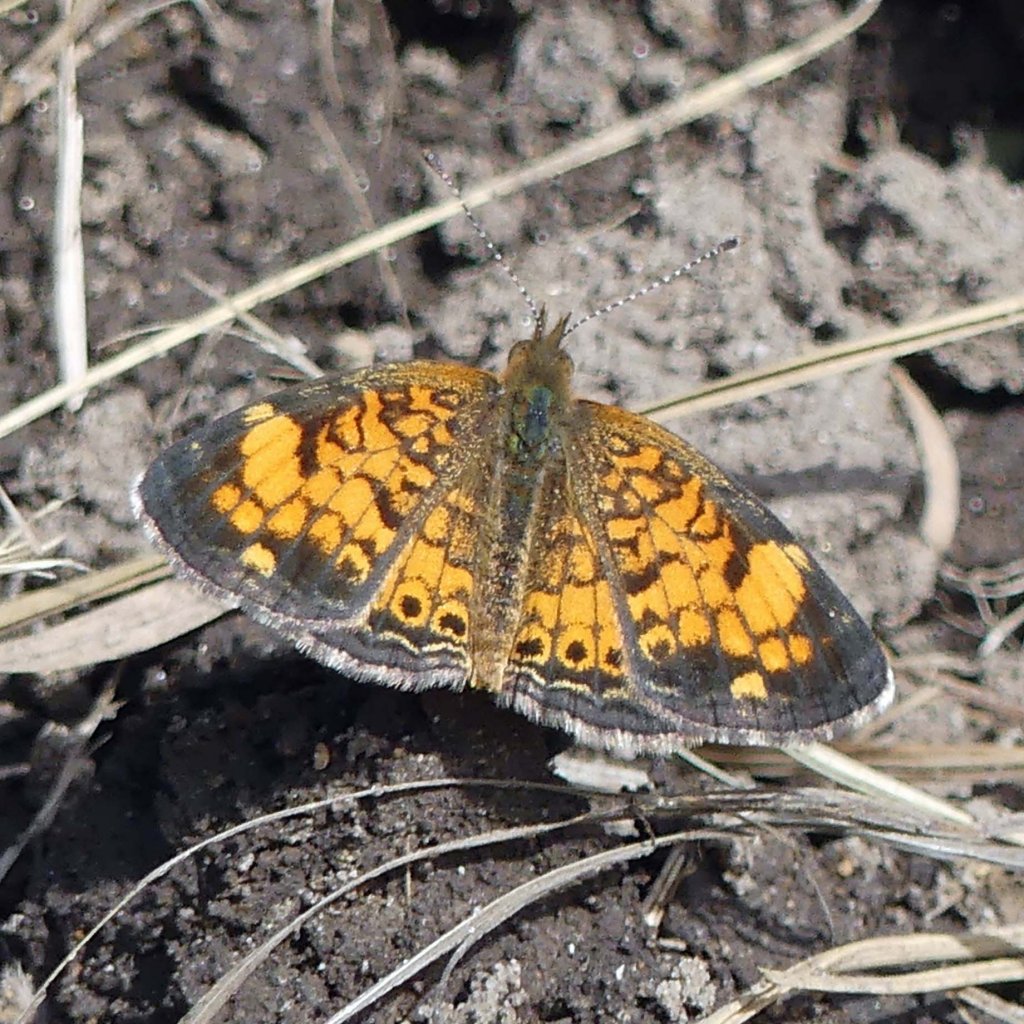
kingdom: Animalia
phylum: Arthropoda
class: Insecta
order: Lepidoptera
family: Nymphalidae
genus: Phyciodes
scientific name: Phyciodes tharos
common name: Pearl Crescent
